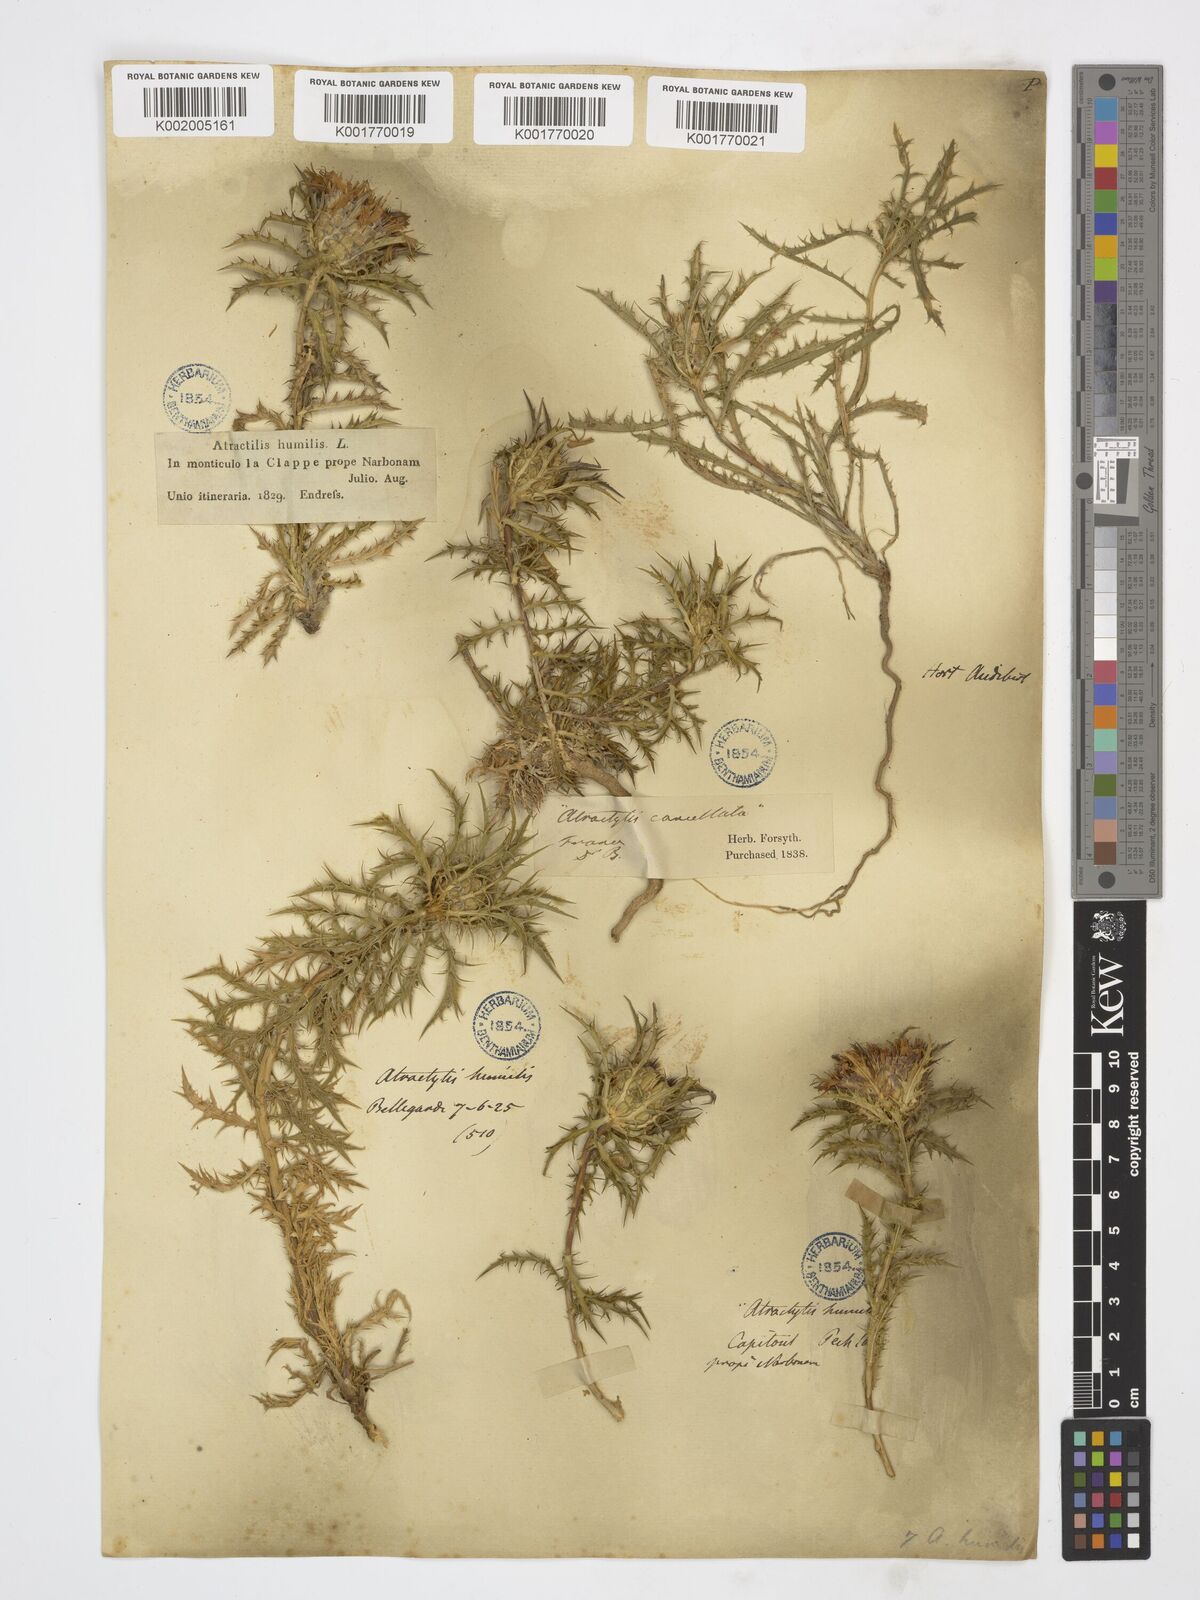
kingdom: Plantae
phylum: Tracheophyta
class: Magnoliopsida
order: Asterales
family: Asteraceae
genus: Atractylis
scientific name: Atractylis humilis
